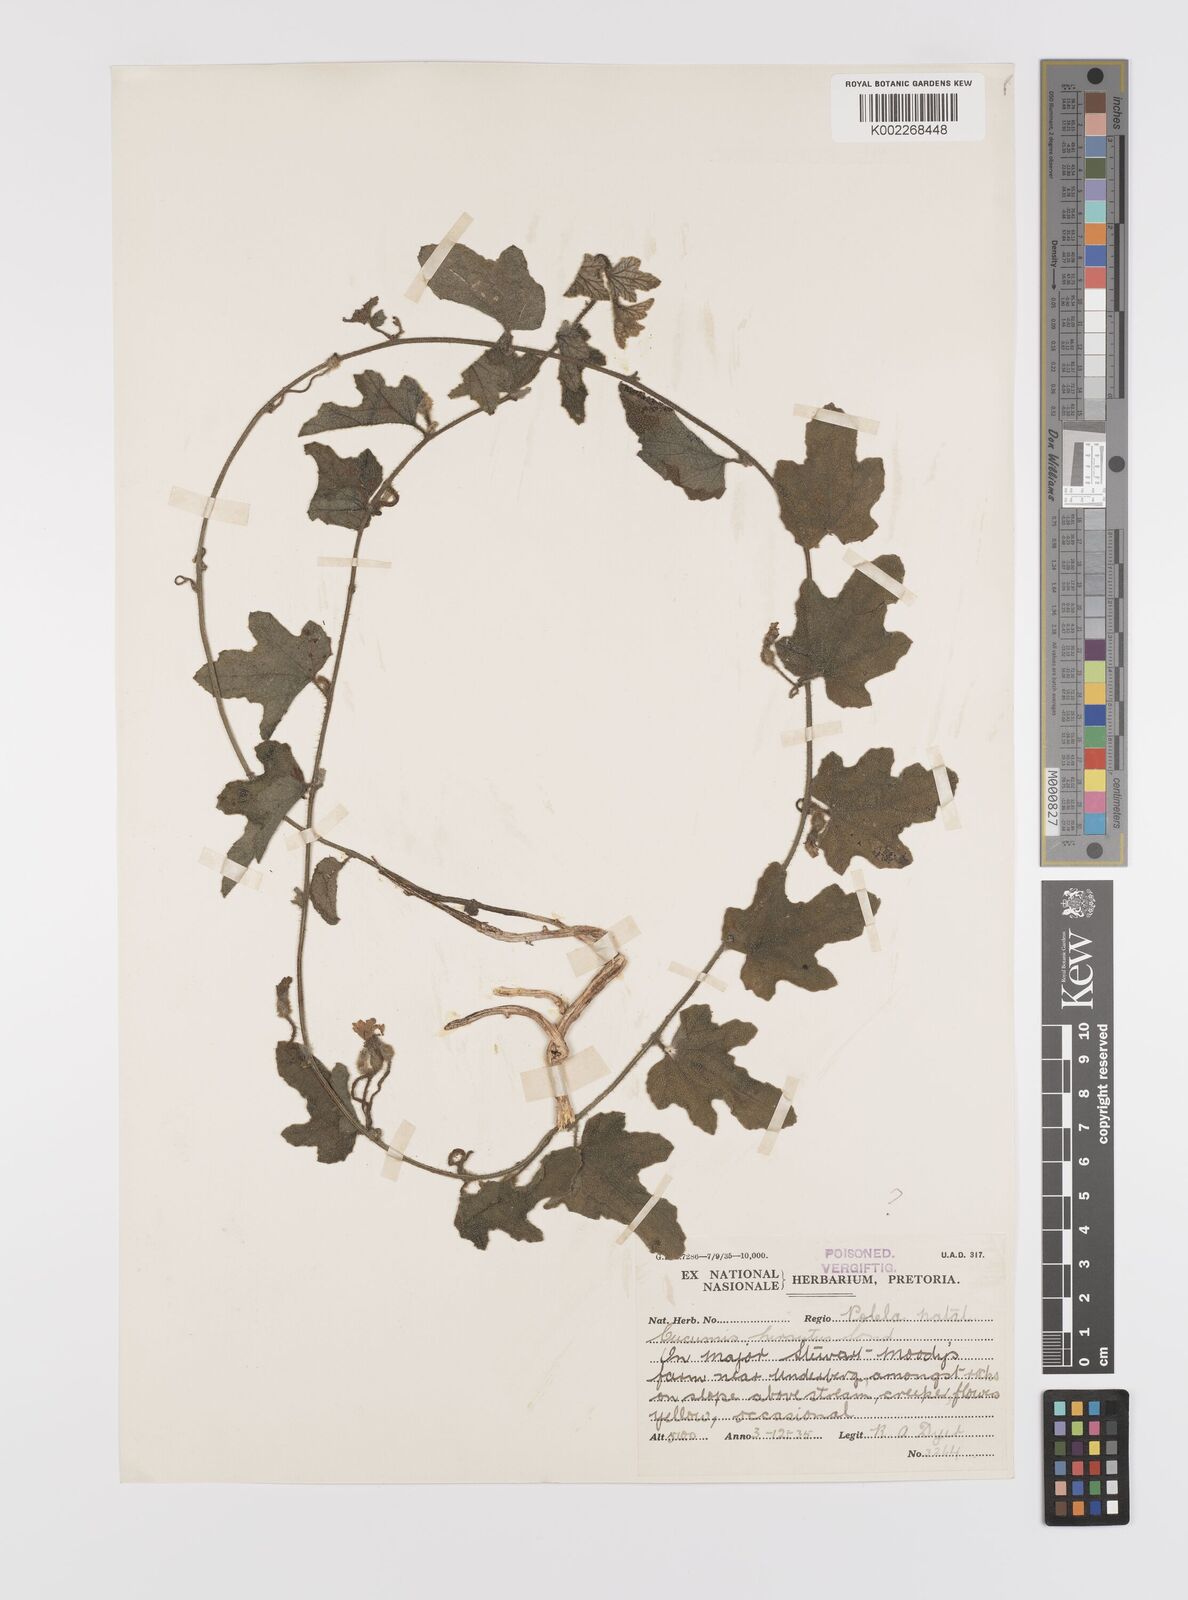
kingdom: Plantae
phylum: Tracheophyta
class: Magnoliopsida
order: Cucurbitales
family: Cucurbitaceae
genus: Cucumis
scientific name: Cucumis hirsutus
